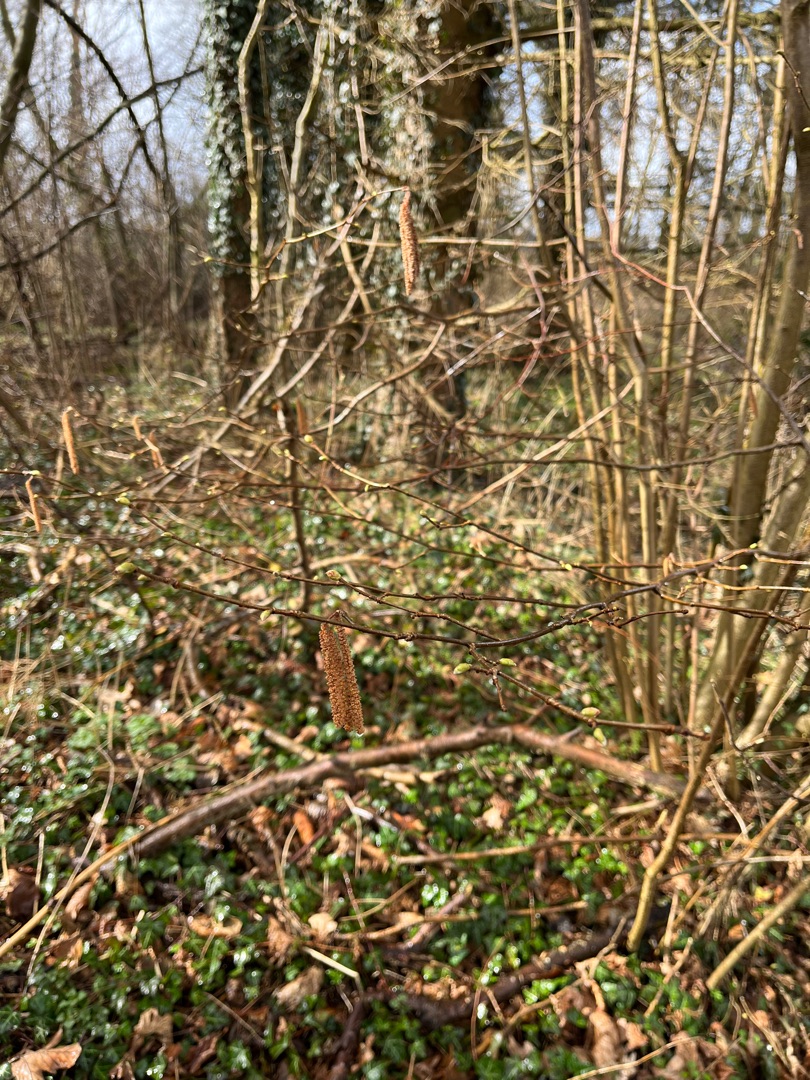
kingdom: Plantae
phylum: Tracheophyta
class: Magnoliopsida
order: Fagales
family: Betulaceae
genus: Corylus
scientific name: Corylus avellana
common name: Hassel
